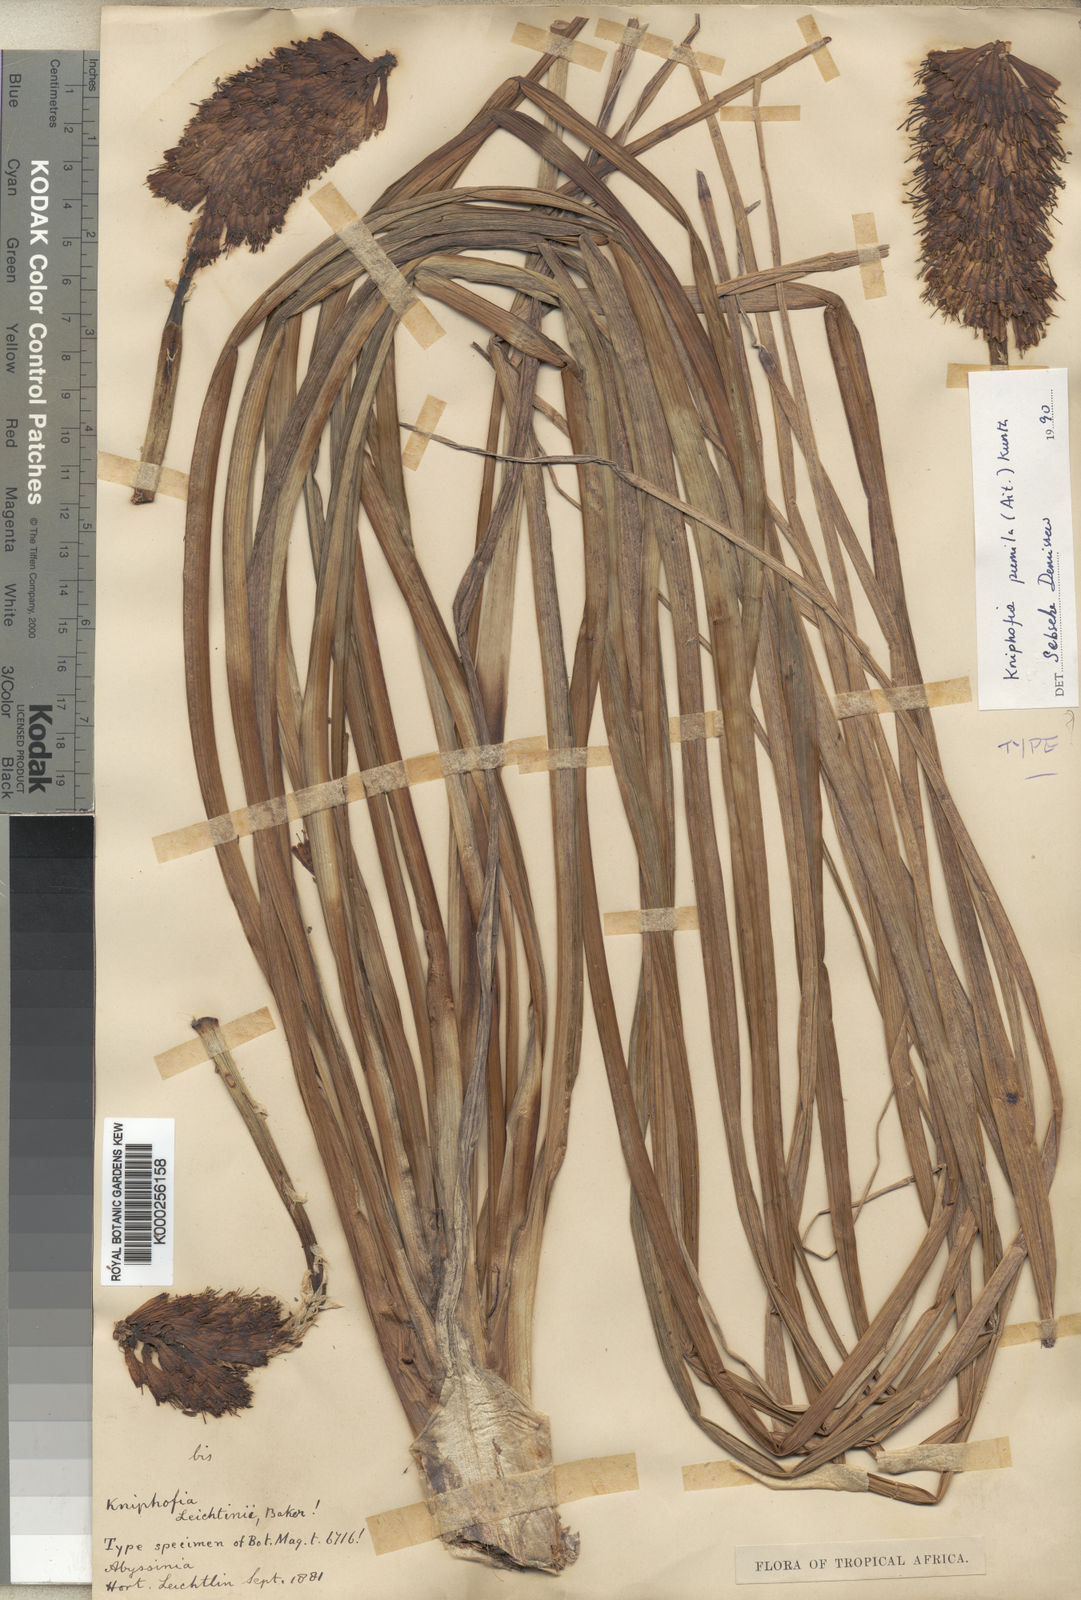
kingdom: Plantae
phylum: Tracheophyta
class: Liliopsida
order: Asparagales
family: Asphodelaceae
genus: Kniphofia
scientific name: Kniphofia pumila
